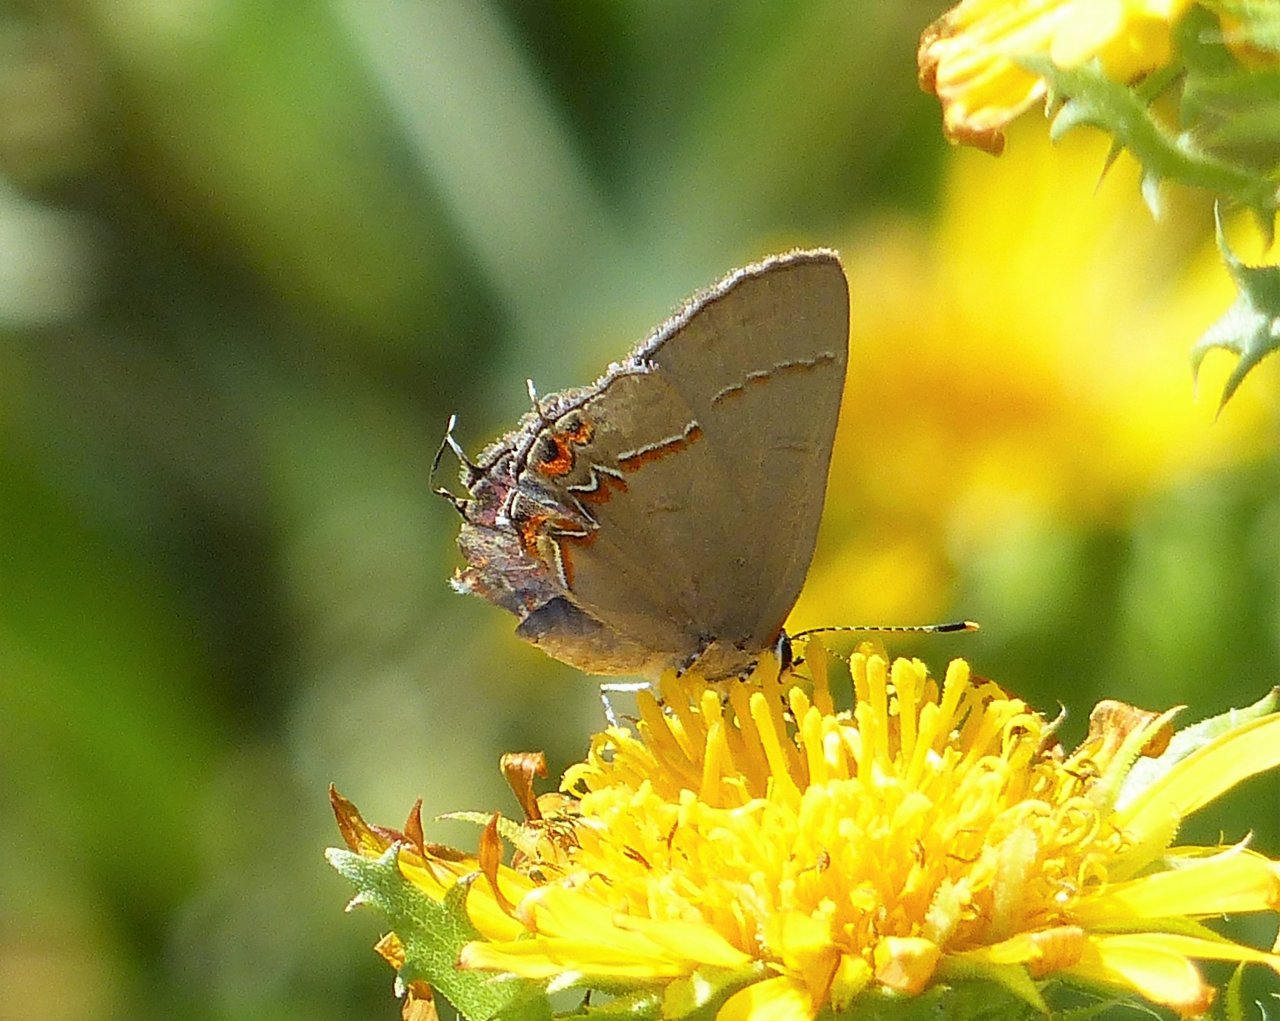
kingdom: Animalia
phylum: Arthropoda
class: Insecta
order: Lepidoptera
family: Lycaenidae
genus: Calycopis
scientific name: Calycopis isobeon
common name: Dusky-blue Groundstreak
